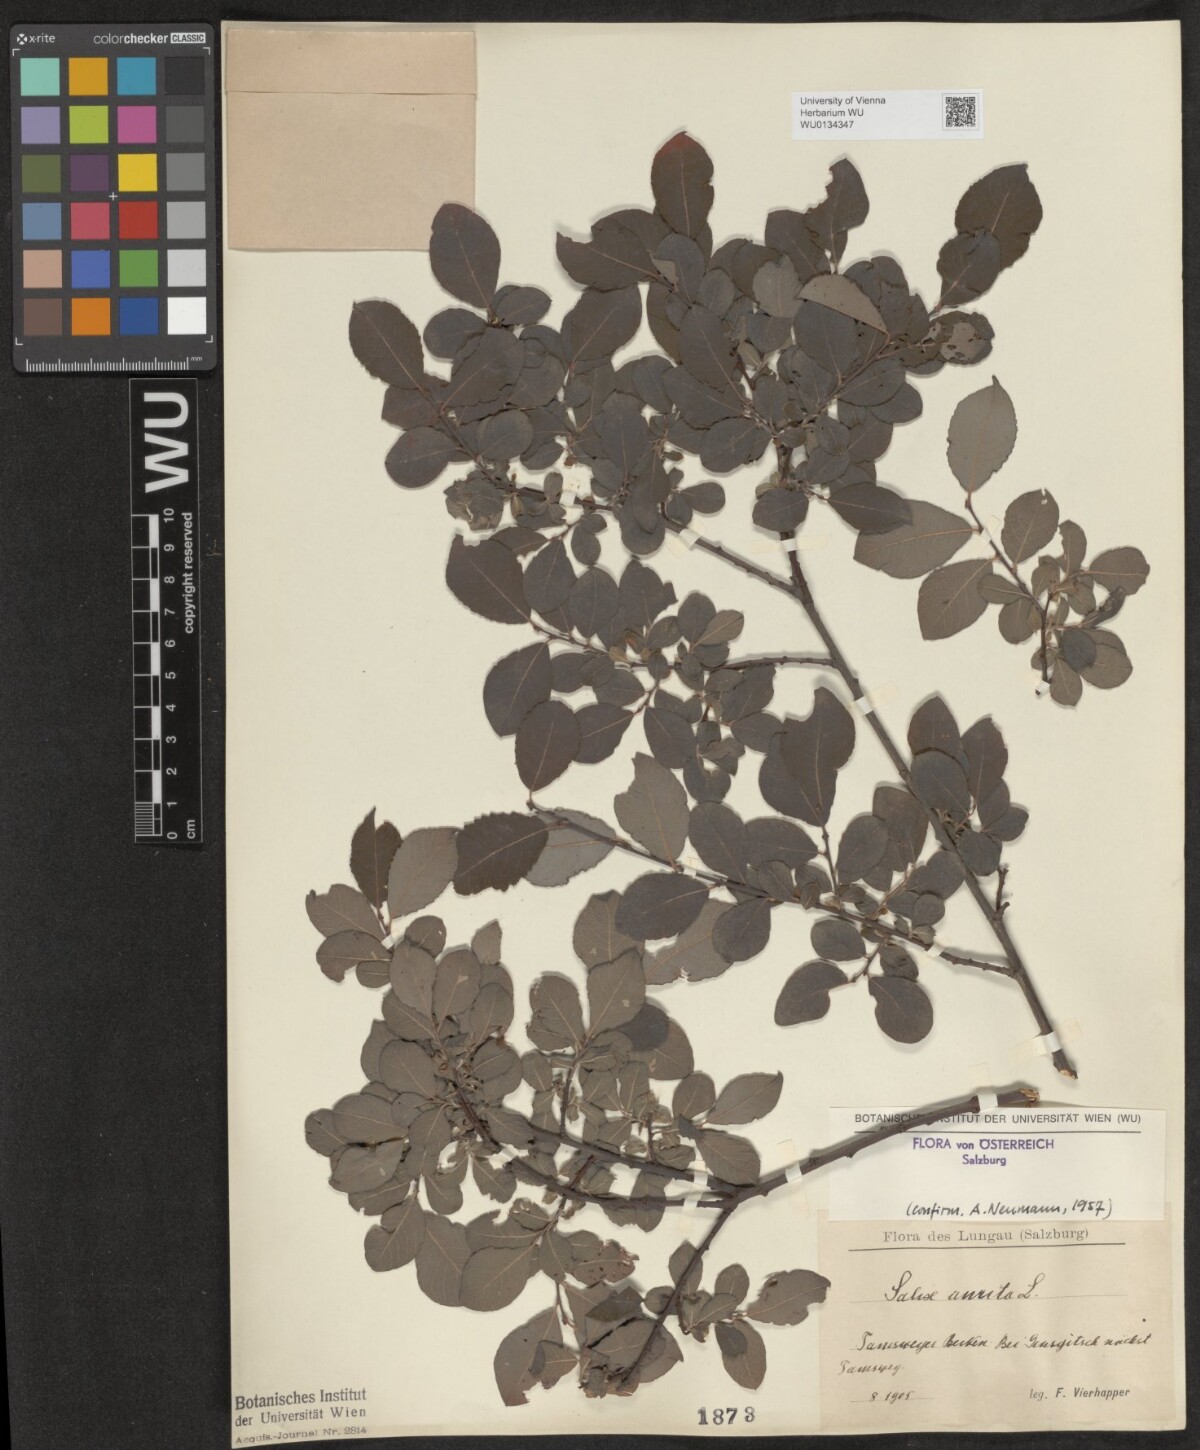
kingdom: Plantae
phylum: Tracheophyta
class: Magnoliopsida
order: Malpighiales
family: Salicaceae
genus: Salix
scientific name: Salix aurita
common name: Eared willow
